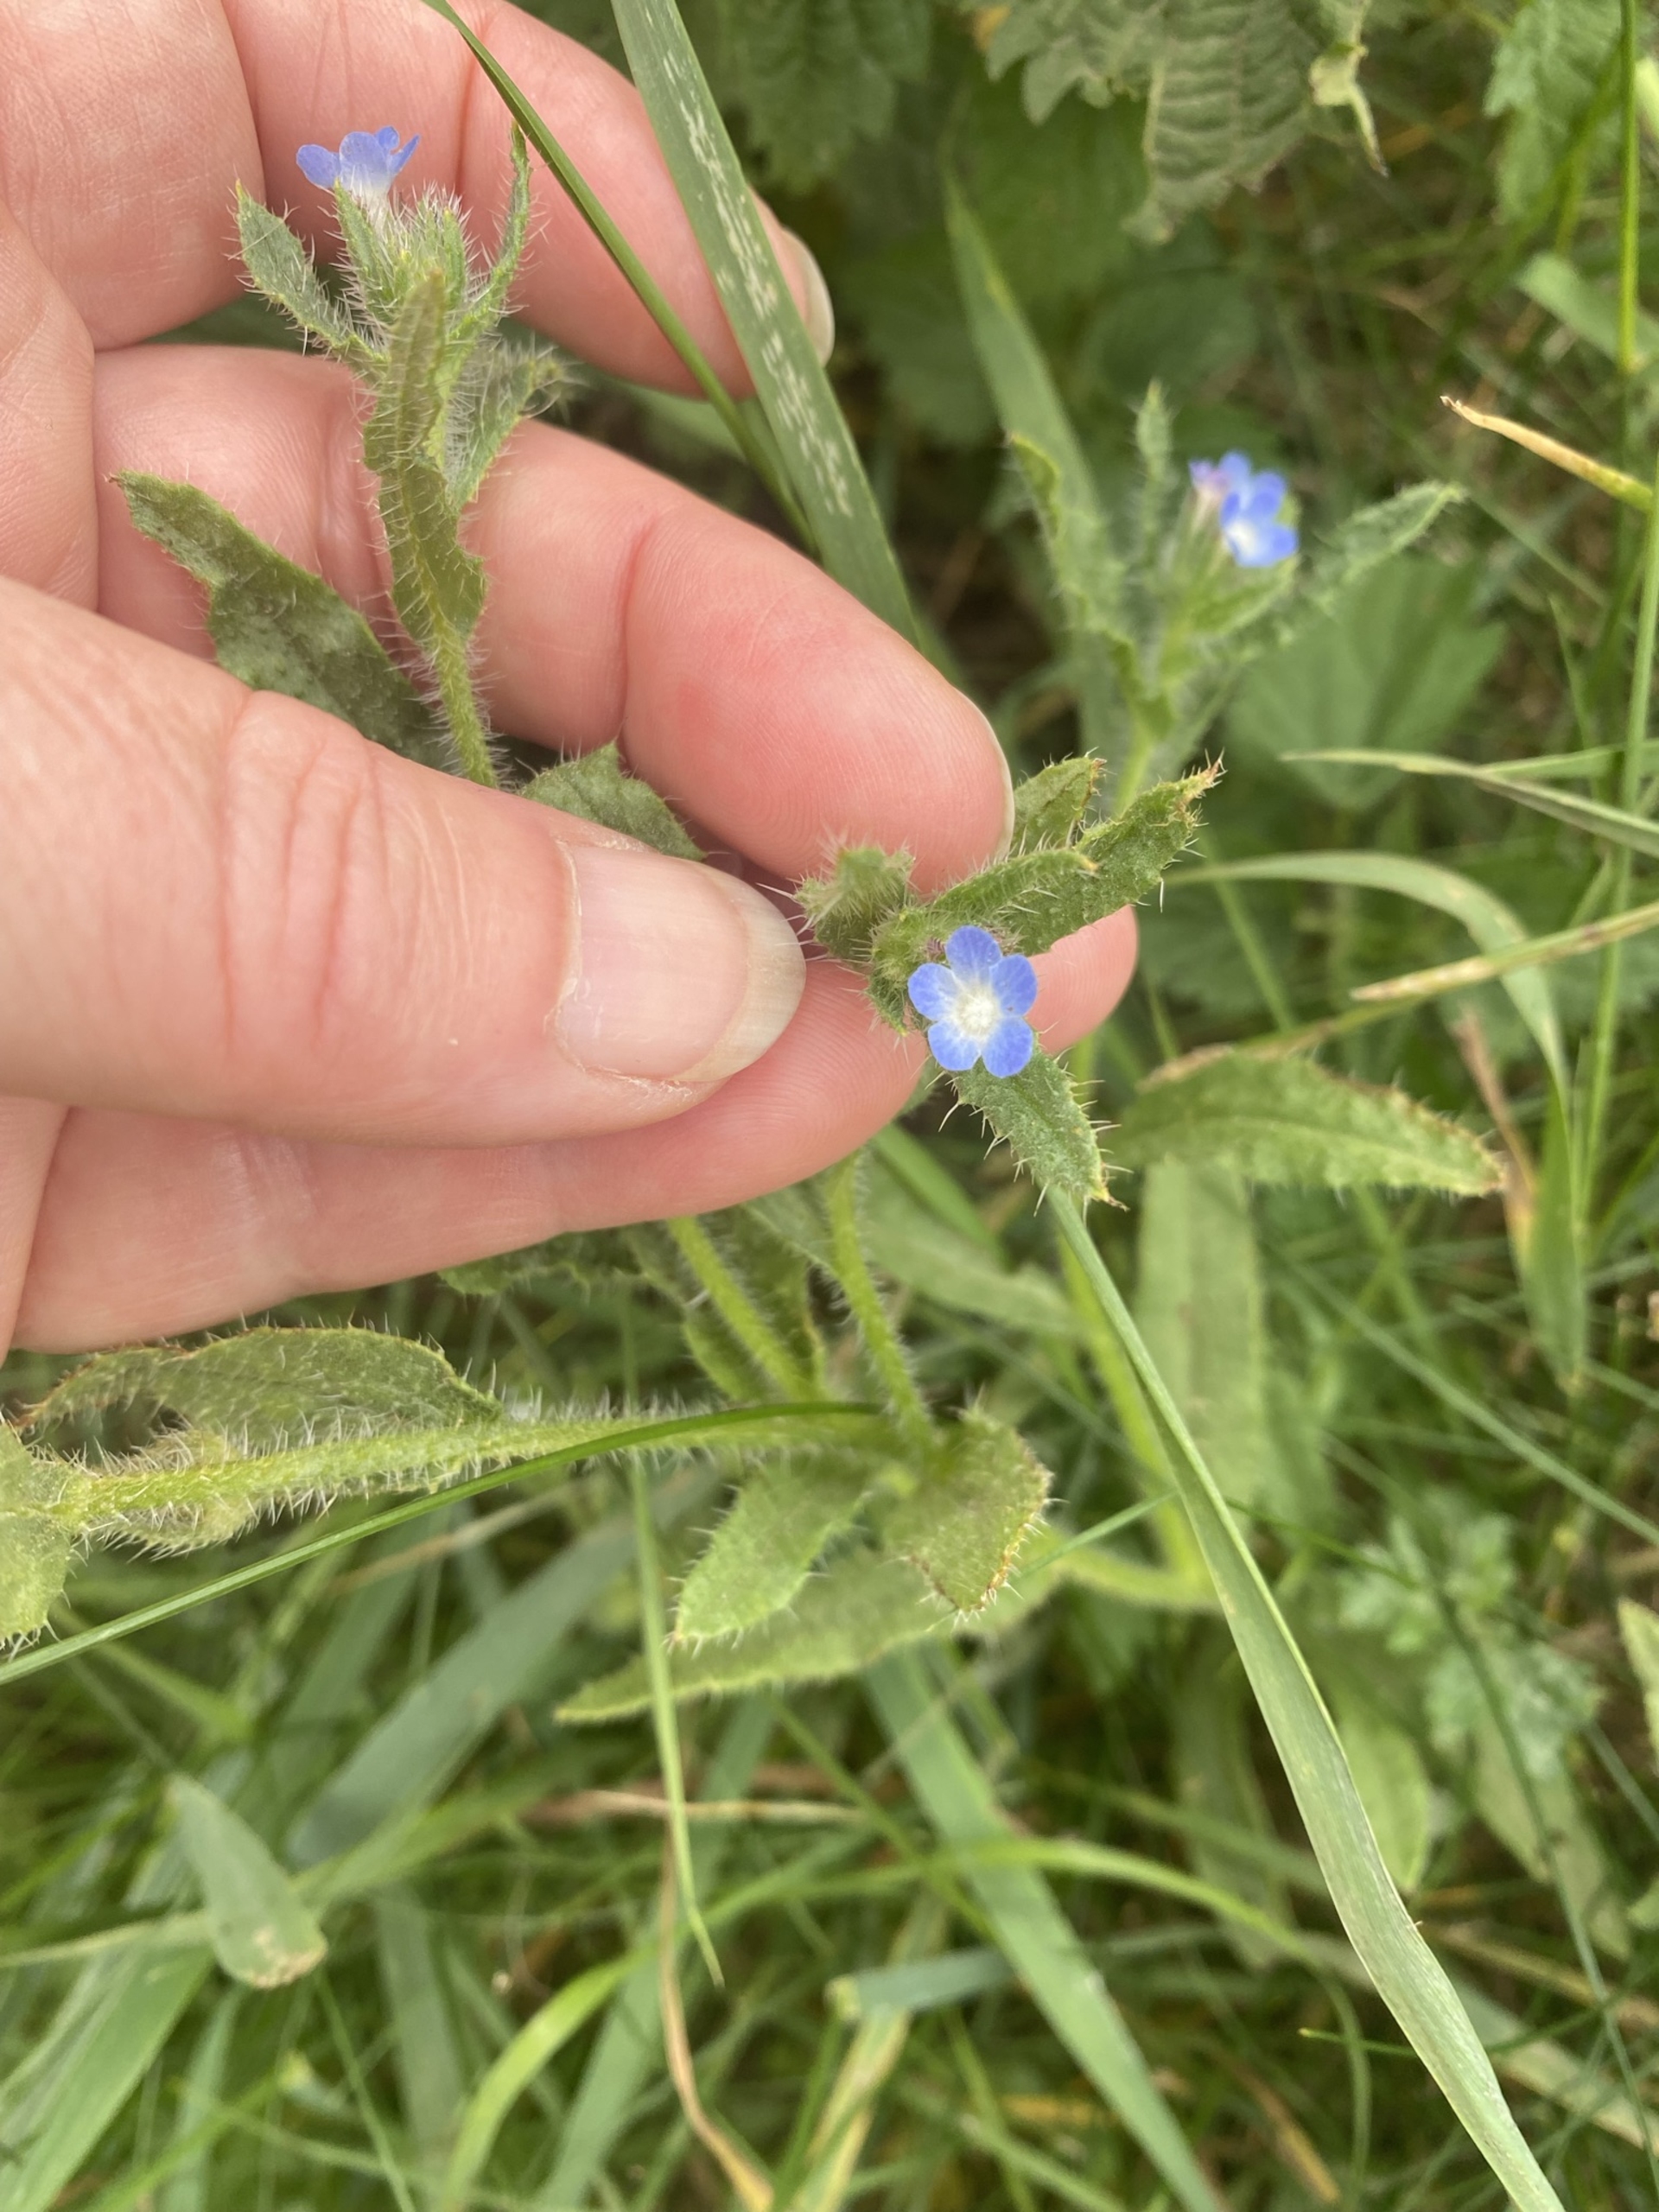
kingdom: Plantae
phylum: Tracheophyta
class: Magnoliopsida
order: Boraginales
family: Boraginaceae
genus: Lycopsis
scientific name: Lycopsis arvensis
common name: Krumhals
